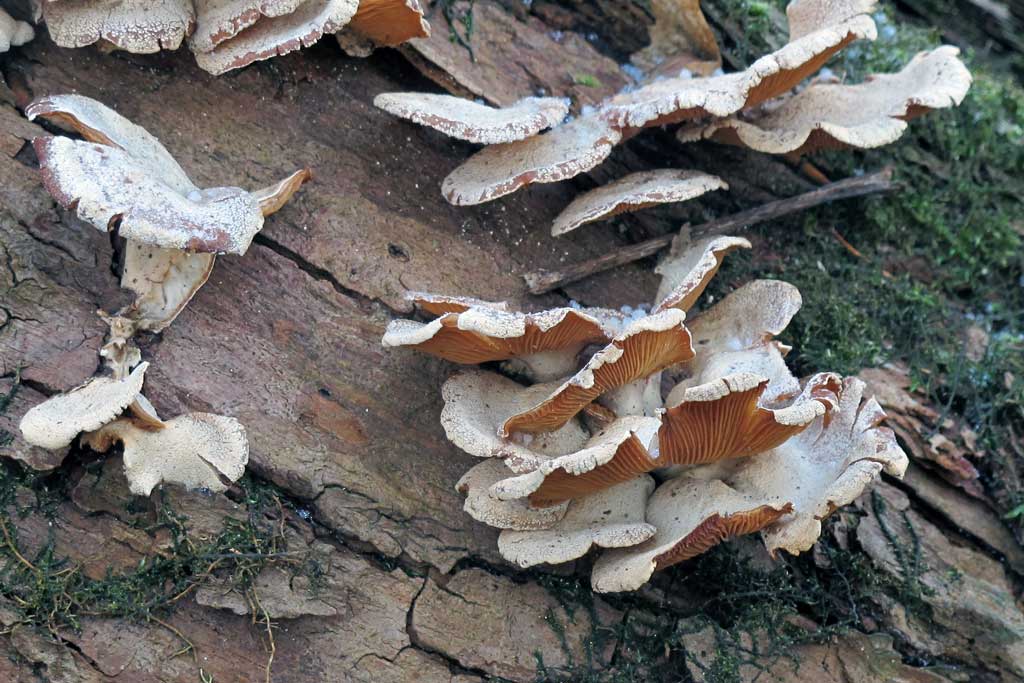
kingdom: Fungi
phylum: Basidiomycota
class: Agaricomycetes
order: Agaricales
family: Mycenaceae
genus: Panellus
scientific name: Panellus stipticus
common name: kliddet epaulethat
